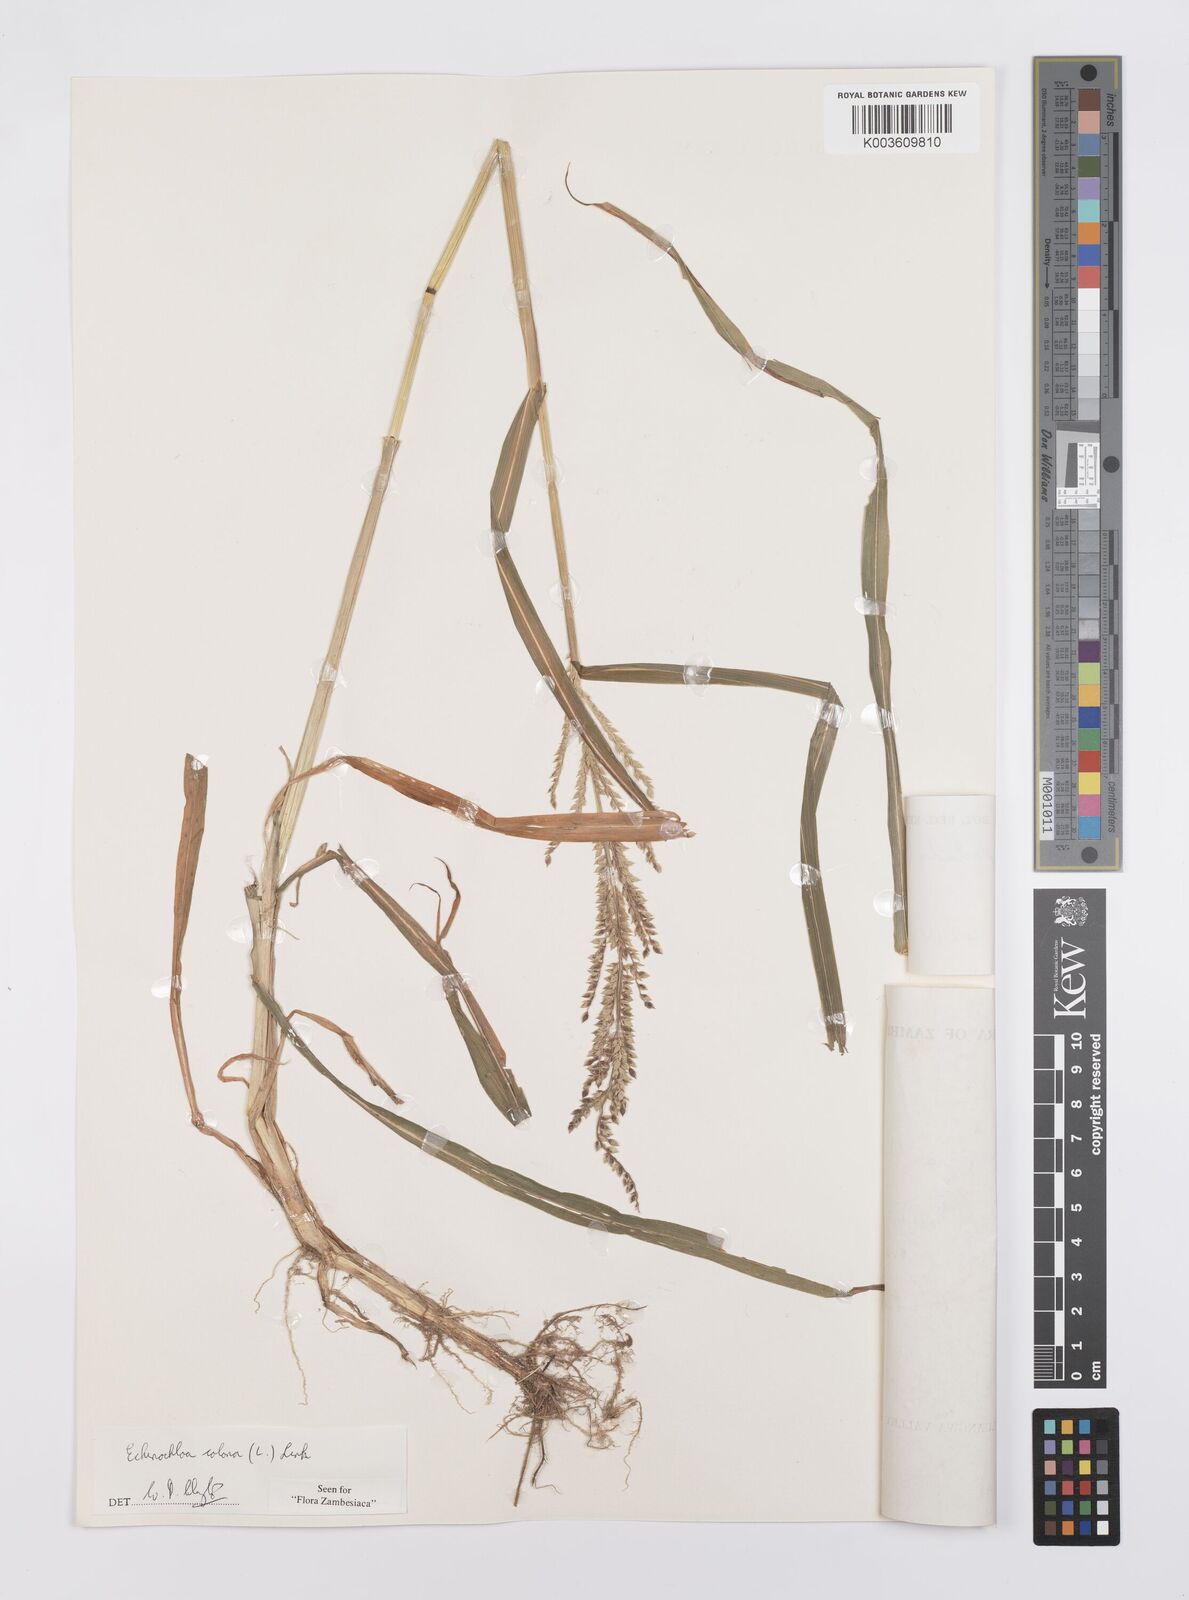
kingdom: Plantae
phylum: Tracheophyta
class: Liliopsida
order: Poales
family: Poaceae
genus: Echinochloa
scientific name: Echinochloa colonum
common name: Jungle rice
